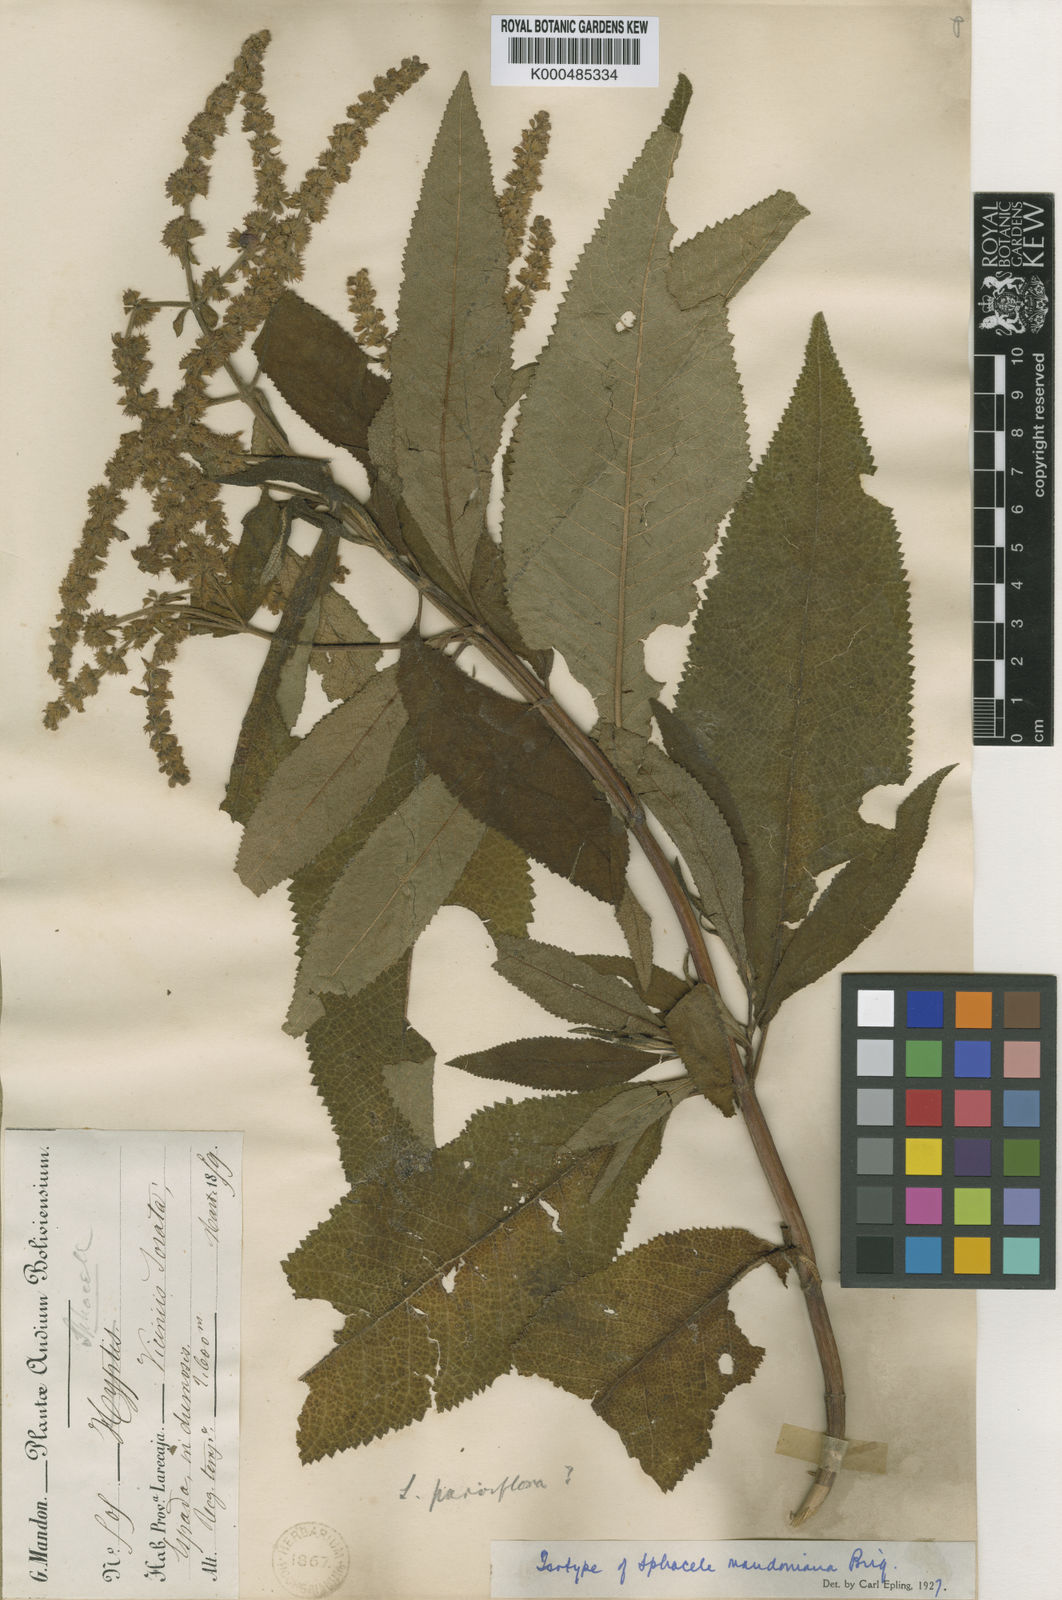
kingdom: Plantae
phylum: Tracheophyta
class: Magnoliopsida
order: Lamiales
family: Lamiaceae
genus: Lepechinia
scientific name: Lepechinia vesiculosa
